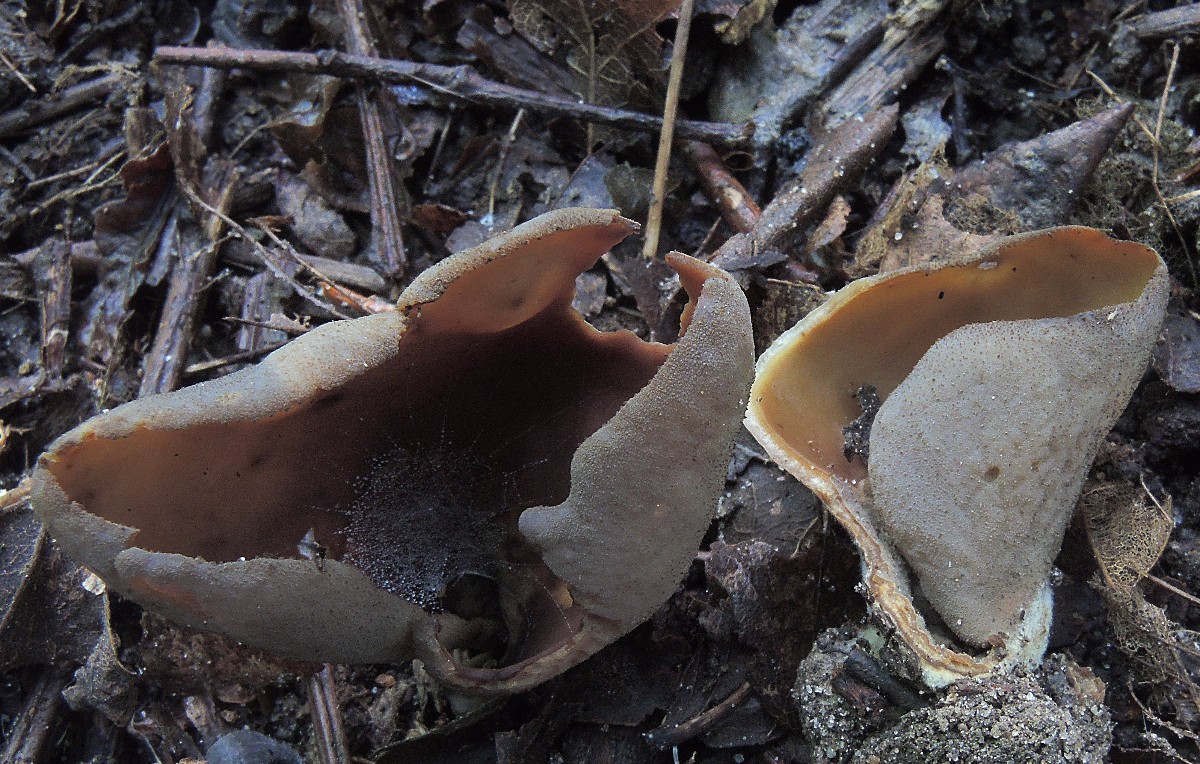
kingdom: Fungi
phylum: Ascomycota
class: Pezizomycetes
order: Pezizales
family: Otideaceae
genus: Otidea
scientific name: Otidea bufonia
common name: brun ørebæger
